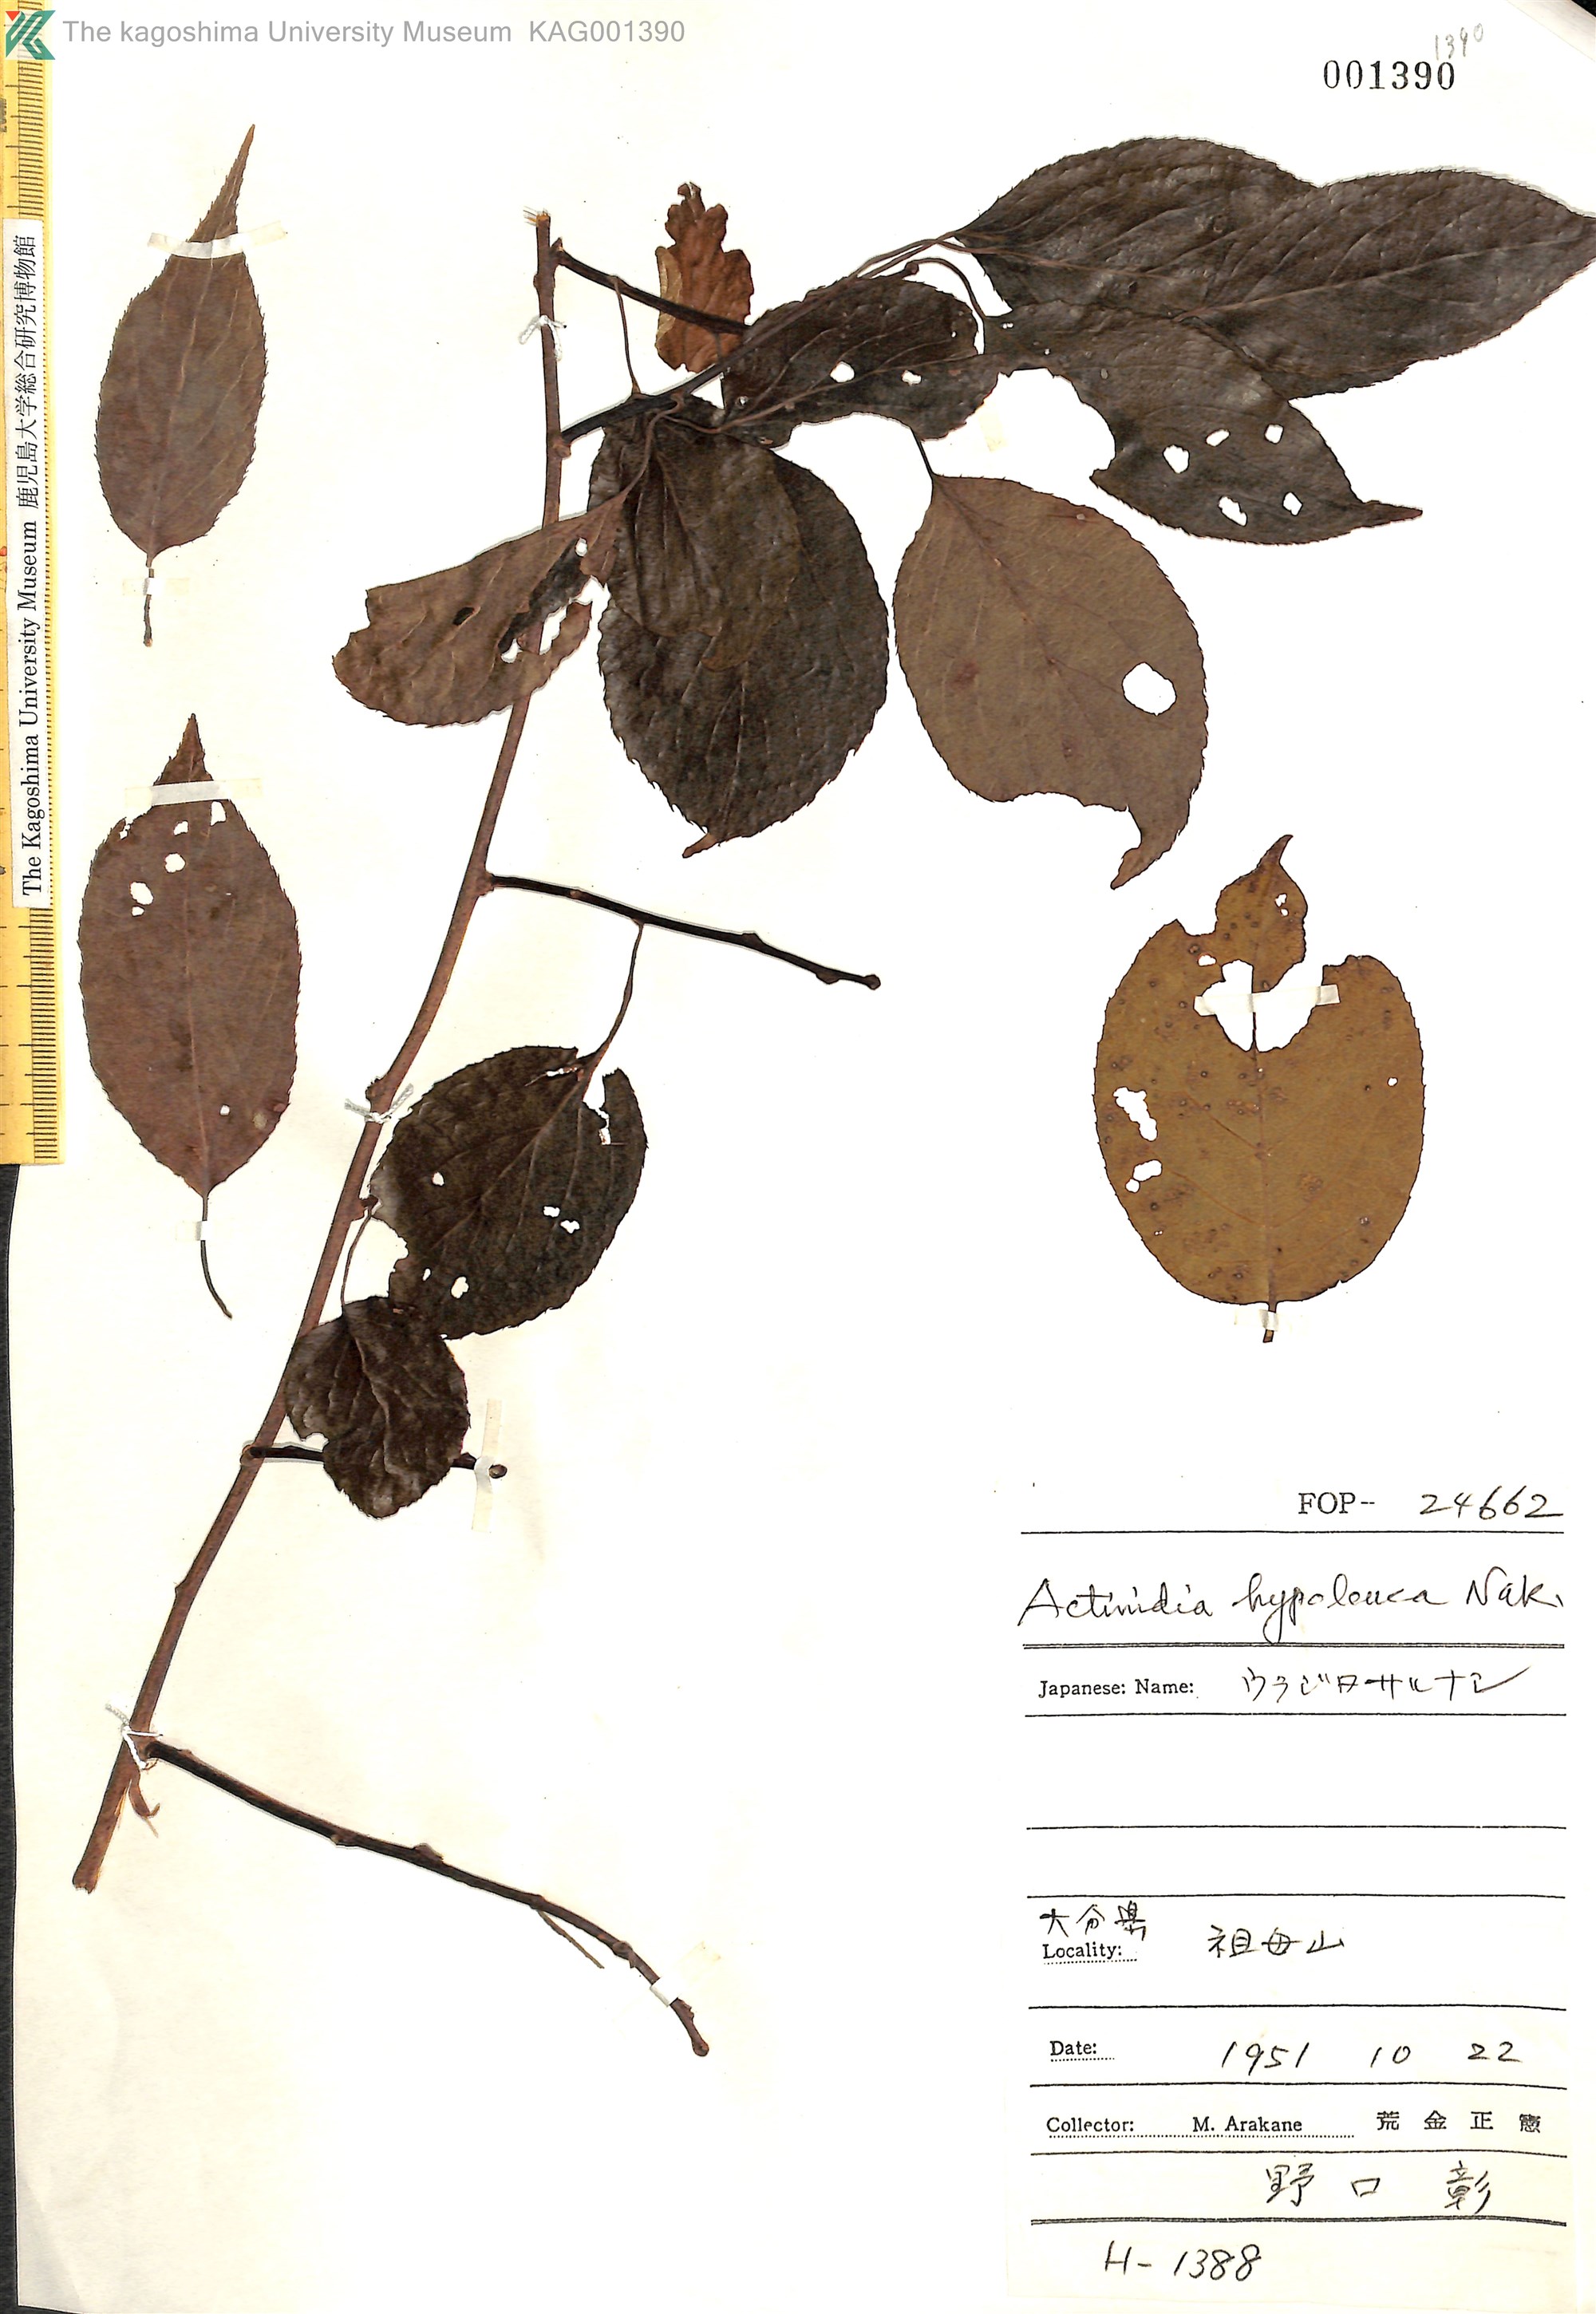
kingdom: Plantae
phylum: Tracheophyta
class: Magnoliopsida
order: Ericales
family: Actinidiaceae
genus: Actinidia
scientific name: Actinidia arguta
